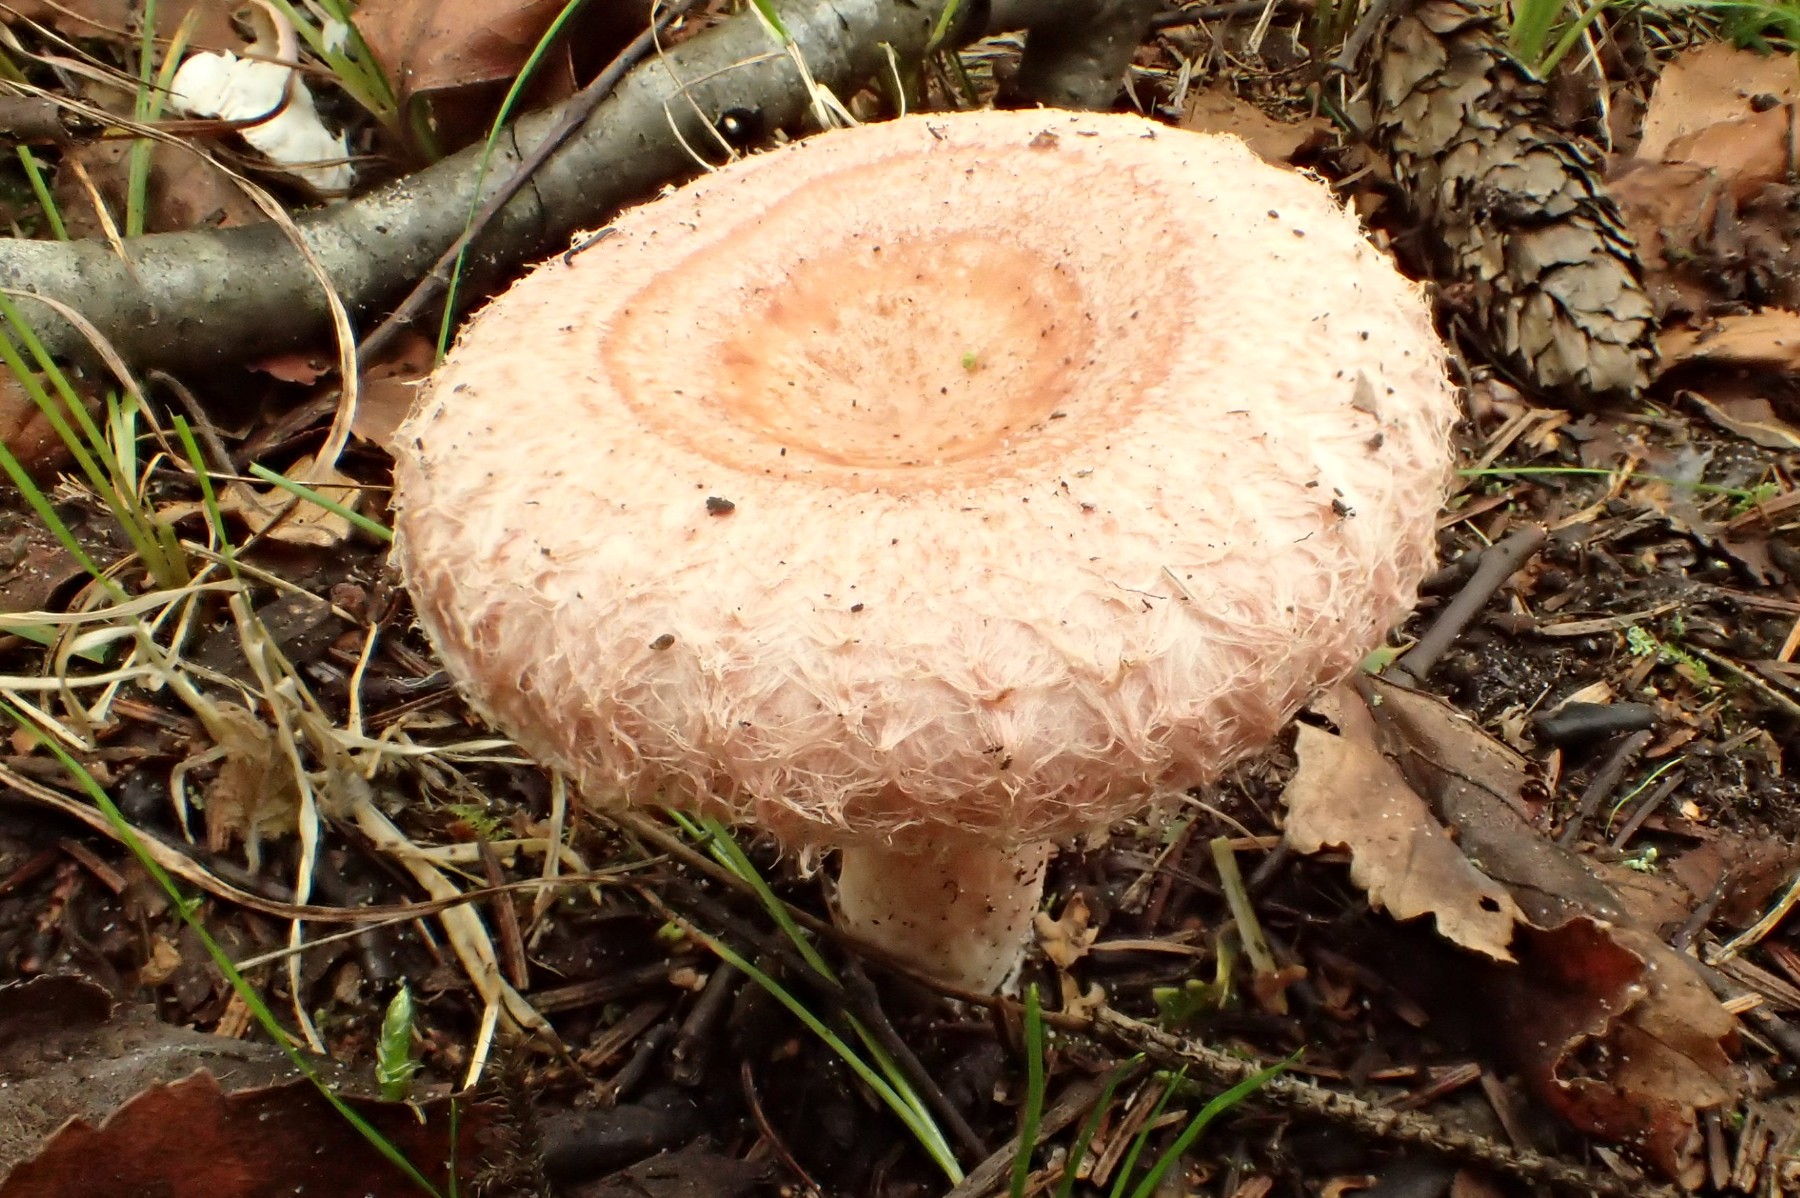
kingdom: Fungi
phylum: Basidiomycota
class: Agaricomycetes
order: Russulales
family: Russulaceae
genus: Lactarius
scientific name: Lactarius torminosus
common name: skægget mælkehat
